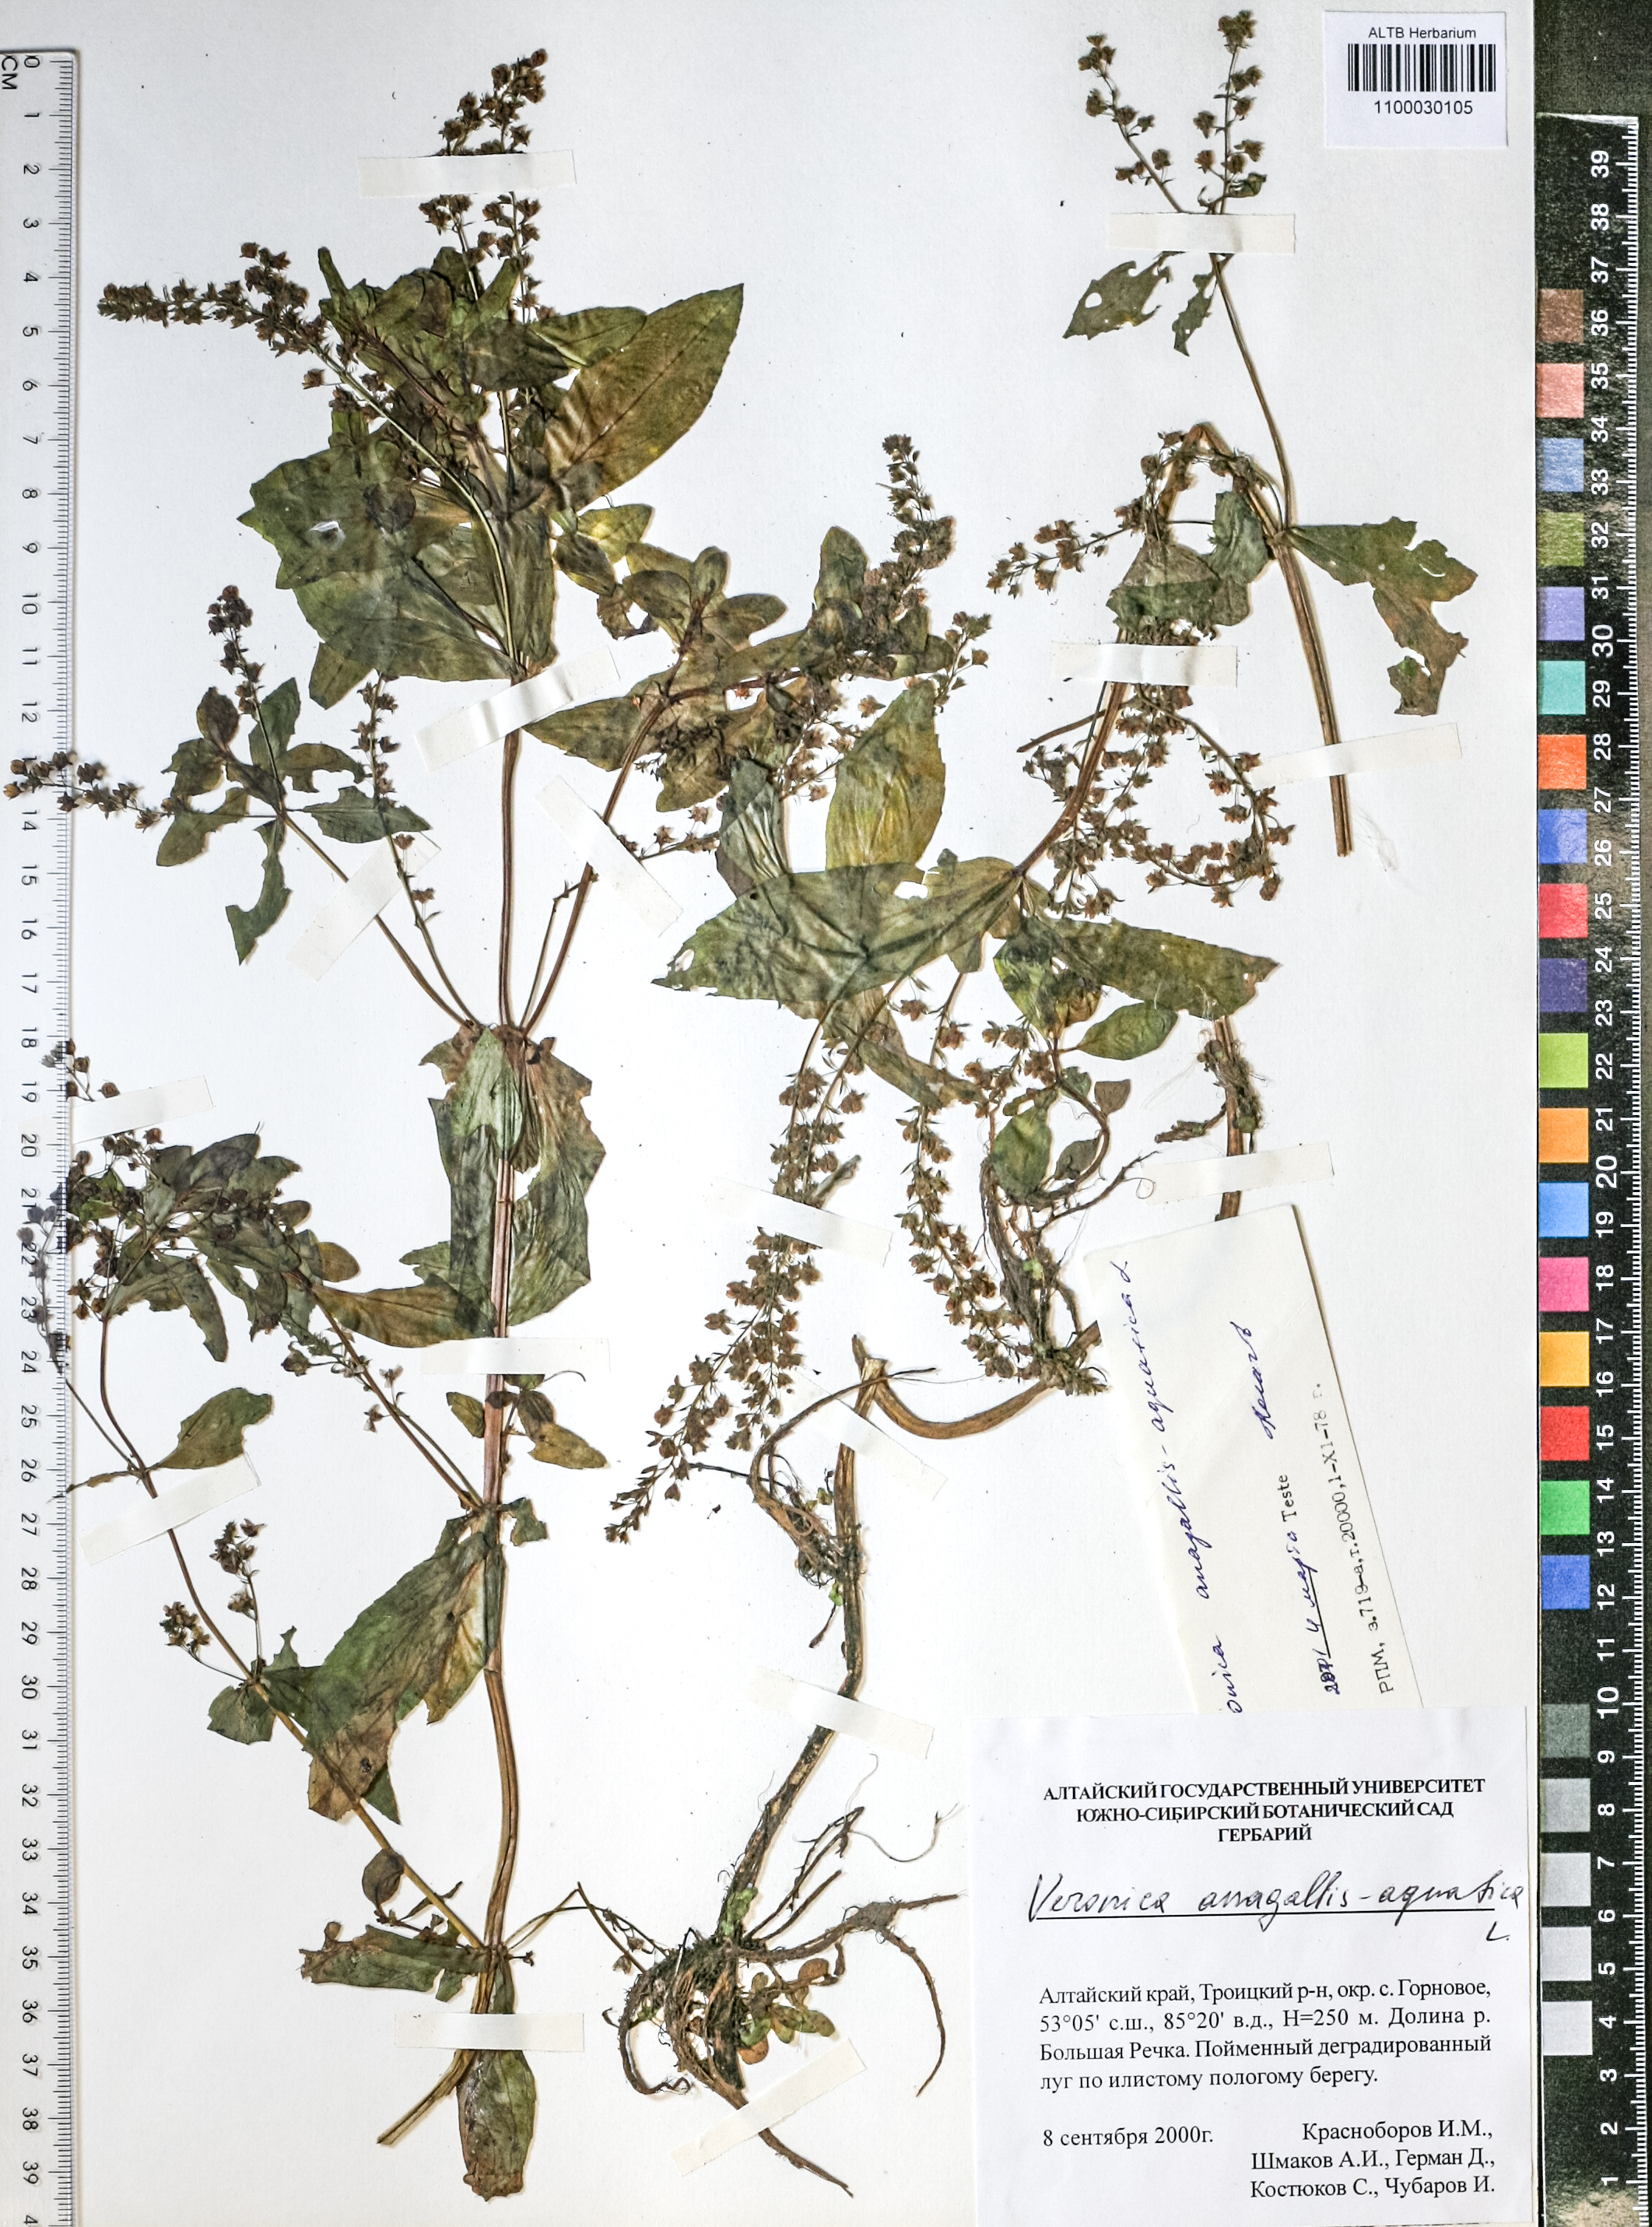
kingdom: Plantae
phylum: Tracheophyta
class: Magnoliopsida
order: Lamiales
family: Plantaginaceae
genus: Veronica
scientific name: Veronica anagallis-aquatica
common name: Water speedwell
